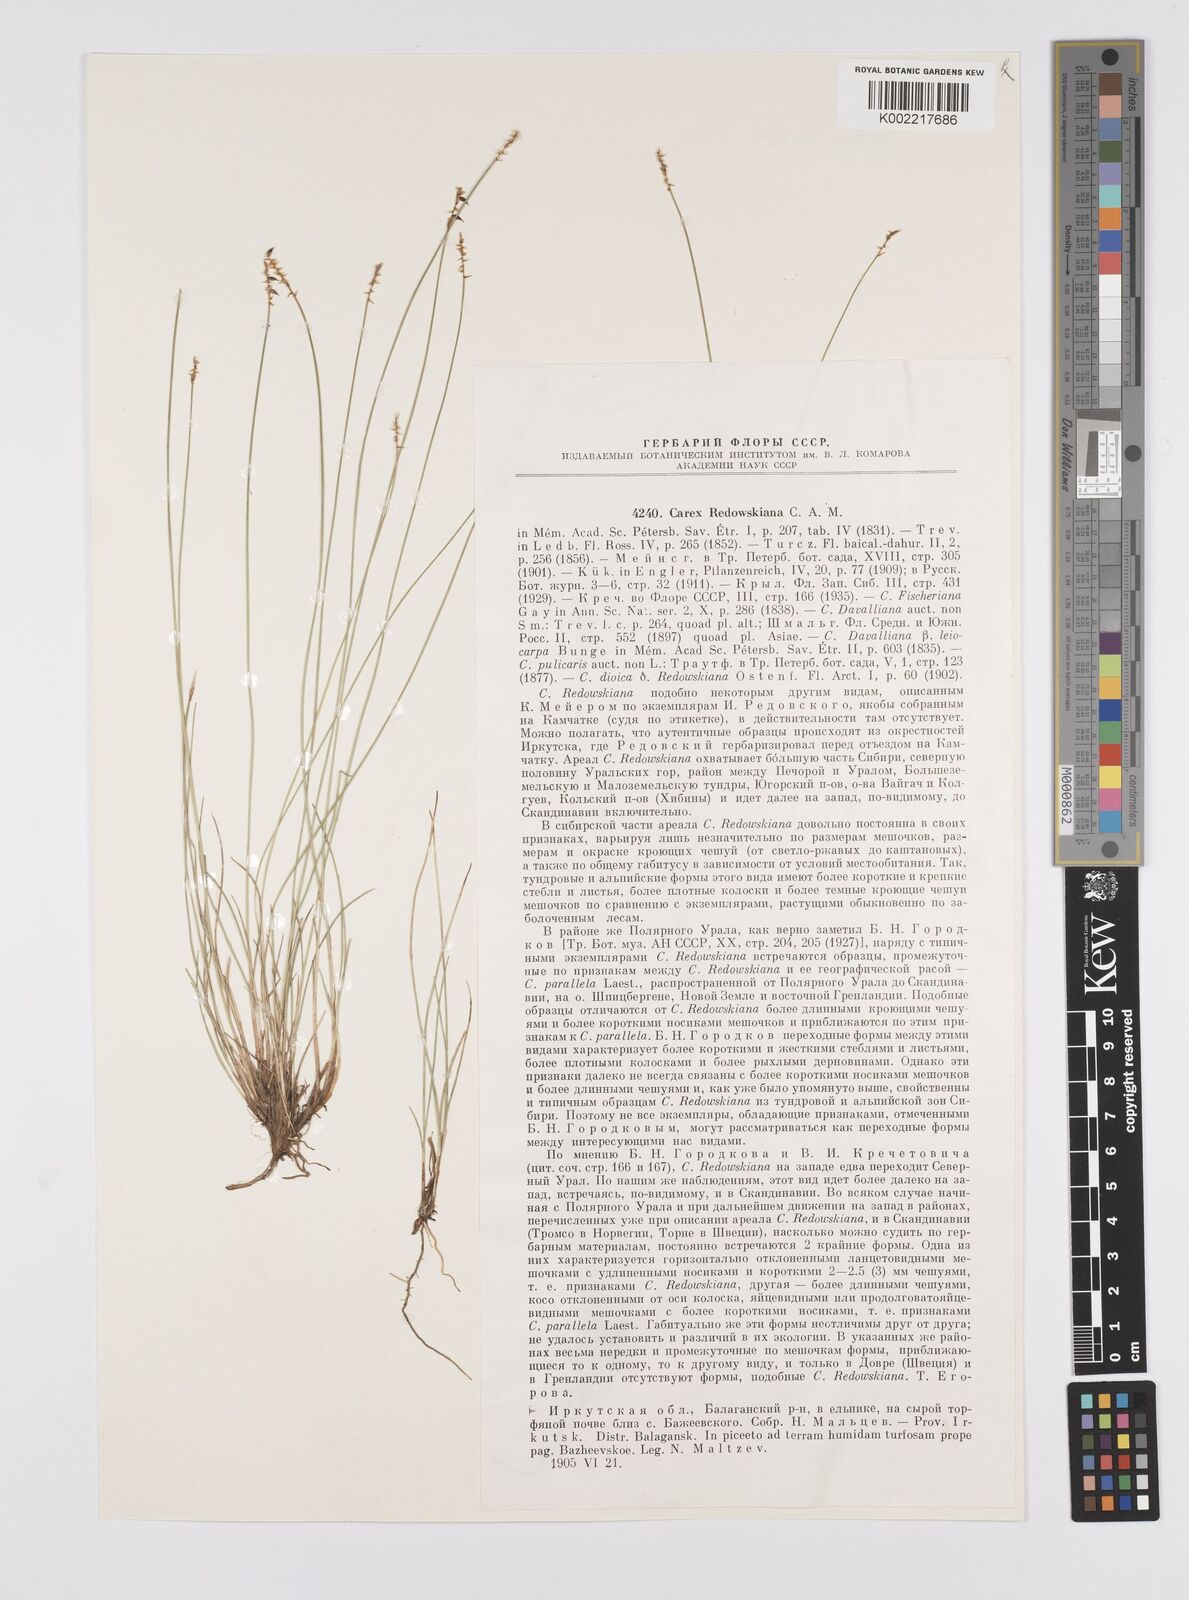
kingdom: Plantae
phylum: Tracheophyta
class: Liliopsida
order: Poales
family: Cyperaceae
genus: Carex
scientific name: Carex parallela
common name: Parallel sedge
